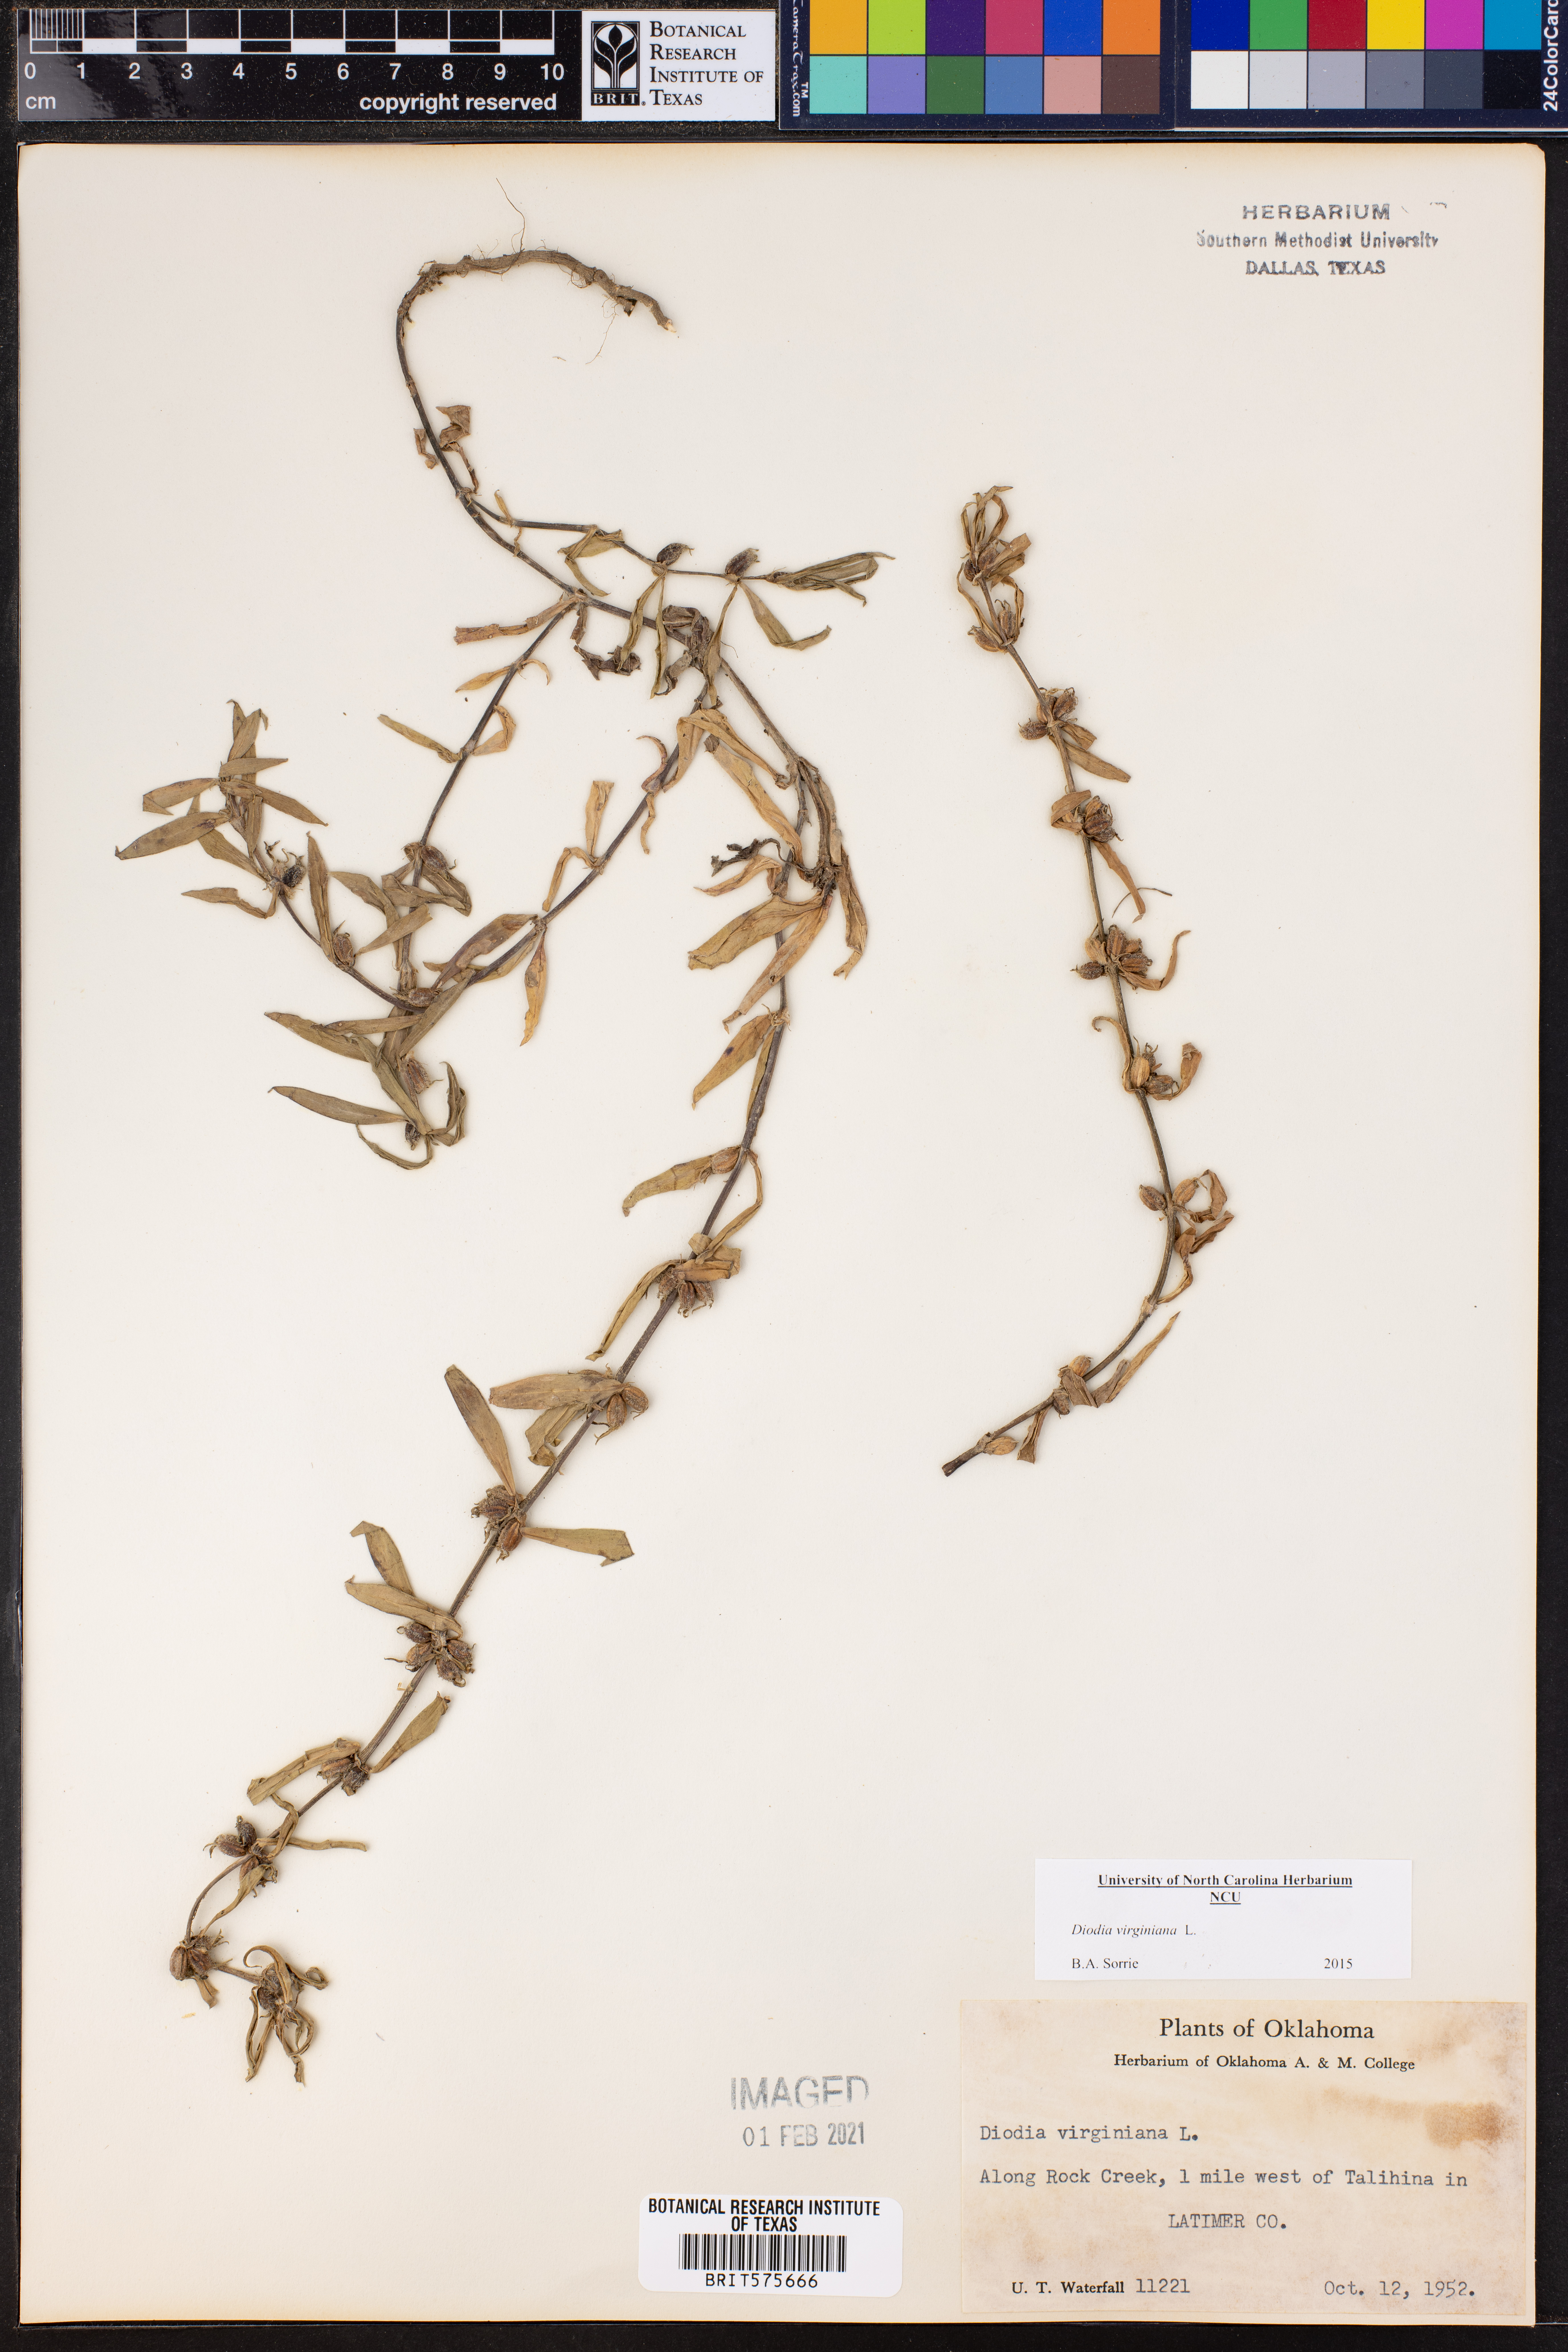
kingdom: Plantae
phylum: Tracheophyta
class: Magnoliopsida
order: Gentianales
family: Rubiaceae
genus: Diodia
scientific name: Diodia virginiana
